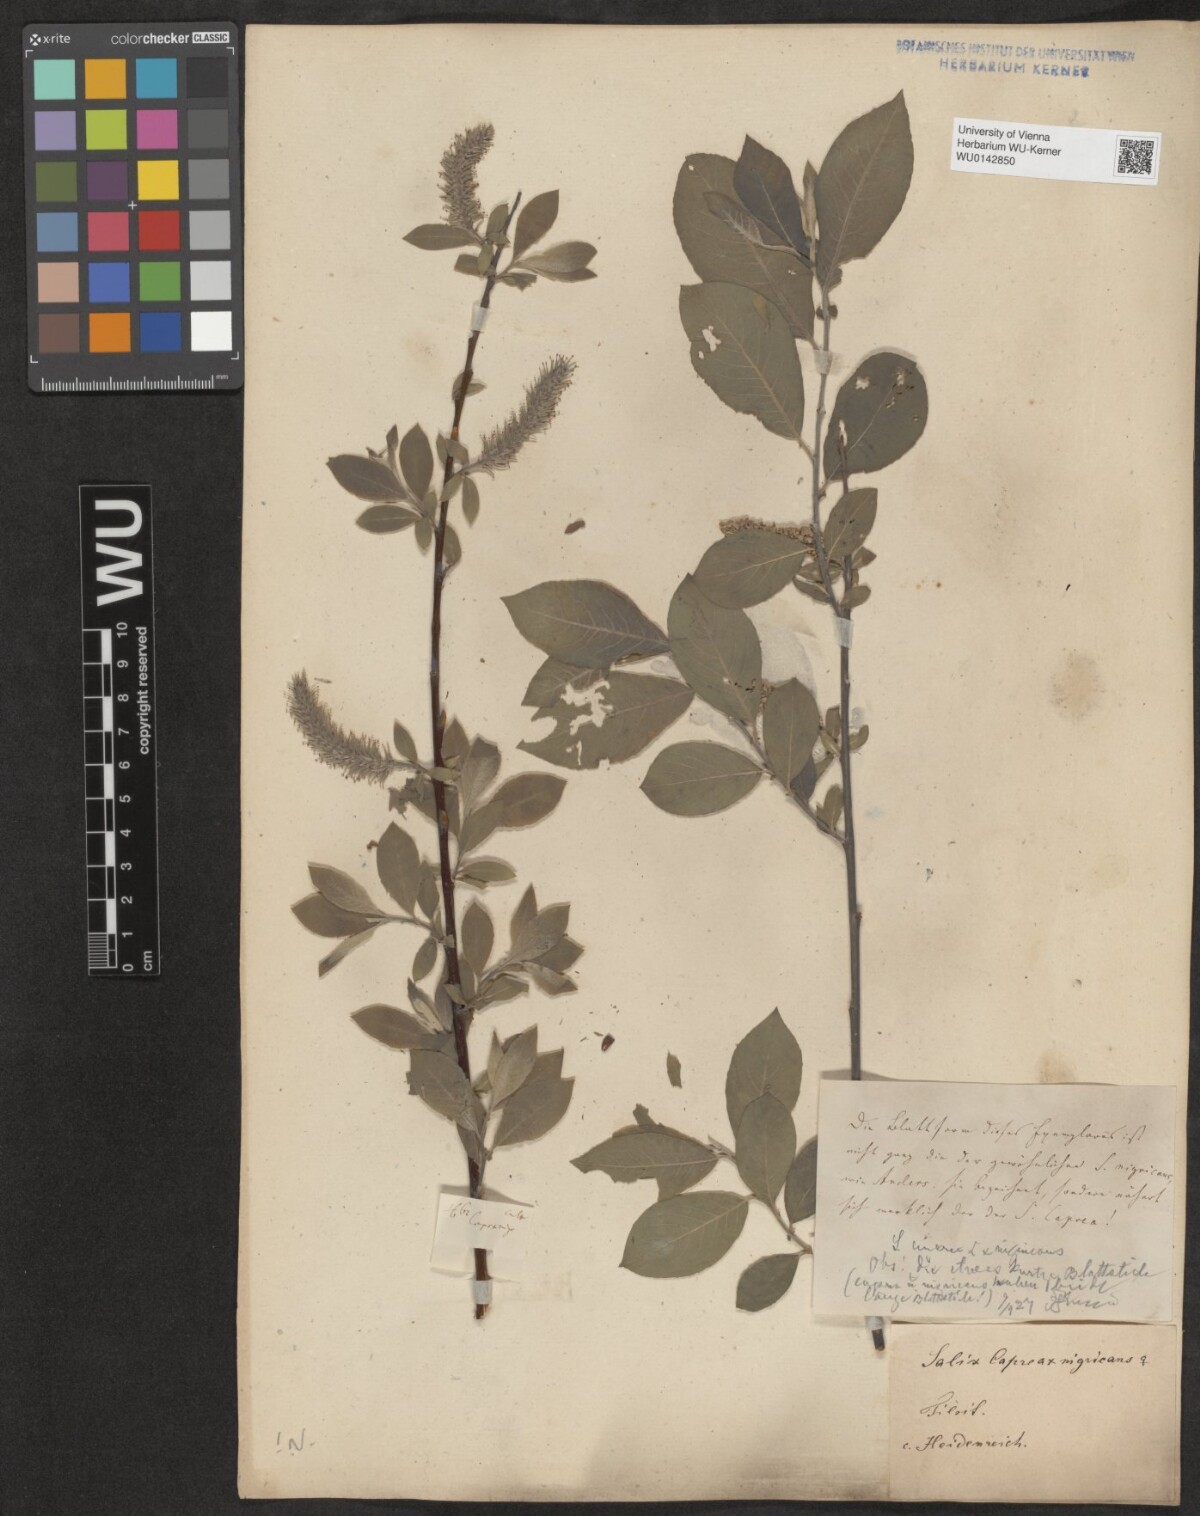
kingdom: Plantae
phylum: Tracheophyta
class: Magnoliopsida
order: Malpighiales
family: Salicaceae
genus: Salix
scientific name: Salix myrsinifolia
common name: Dark-leaved willow
